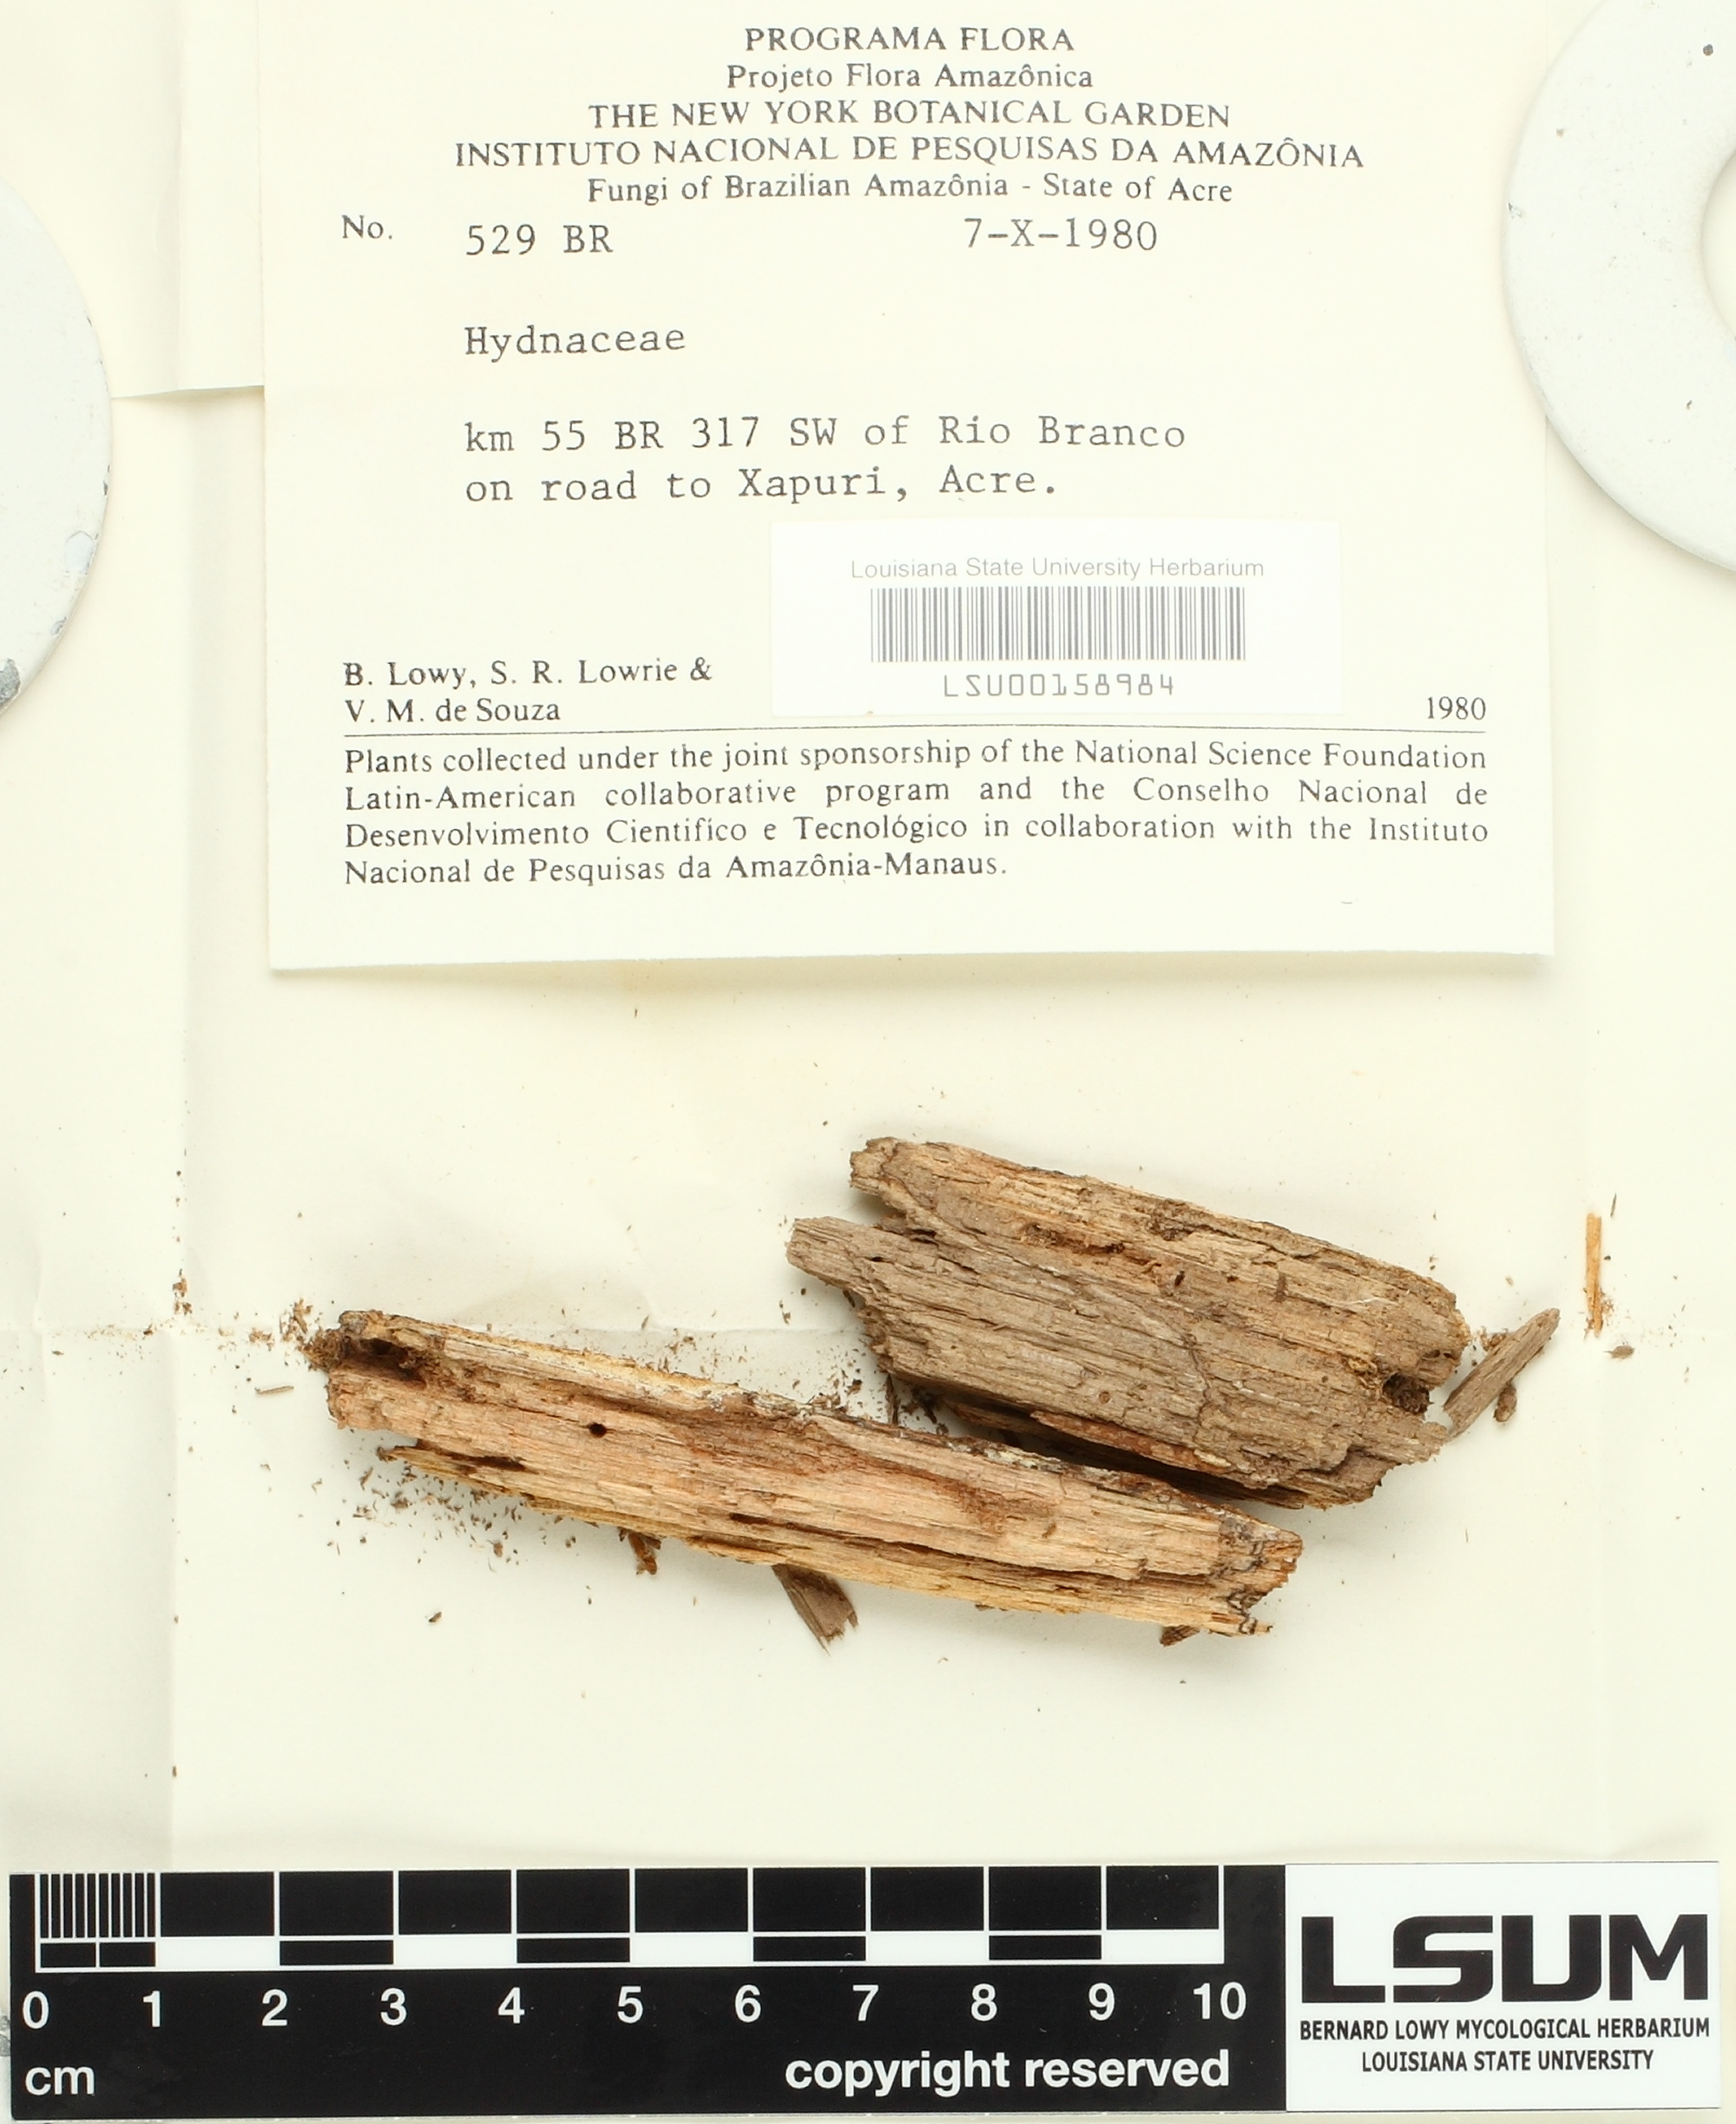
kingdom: Fungi
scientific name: Fungi
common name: Fungi
